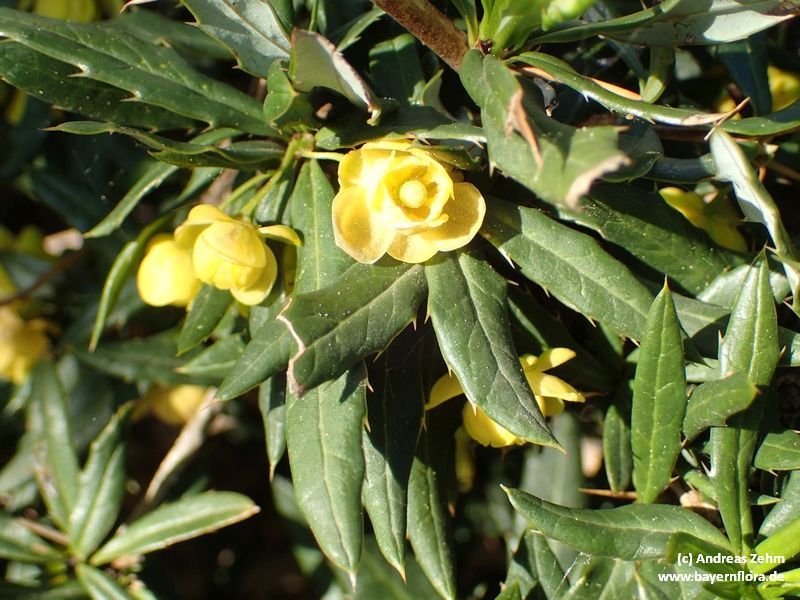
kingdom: Plantae
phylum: Tracheophyta
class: Magnoliopsida
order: Ranunculales
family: Berberidaceae
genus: Berberis
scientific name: Berberis candidula
